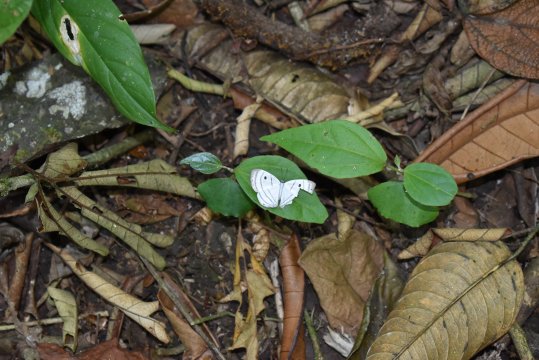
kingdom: Animalia
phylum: Arthropoda
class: Insecta
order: Lepidoptera
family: Riodinidae
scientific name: Riodinidae
